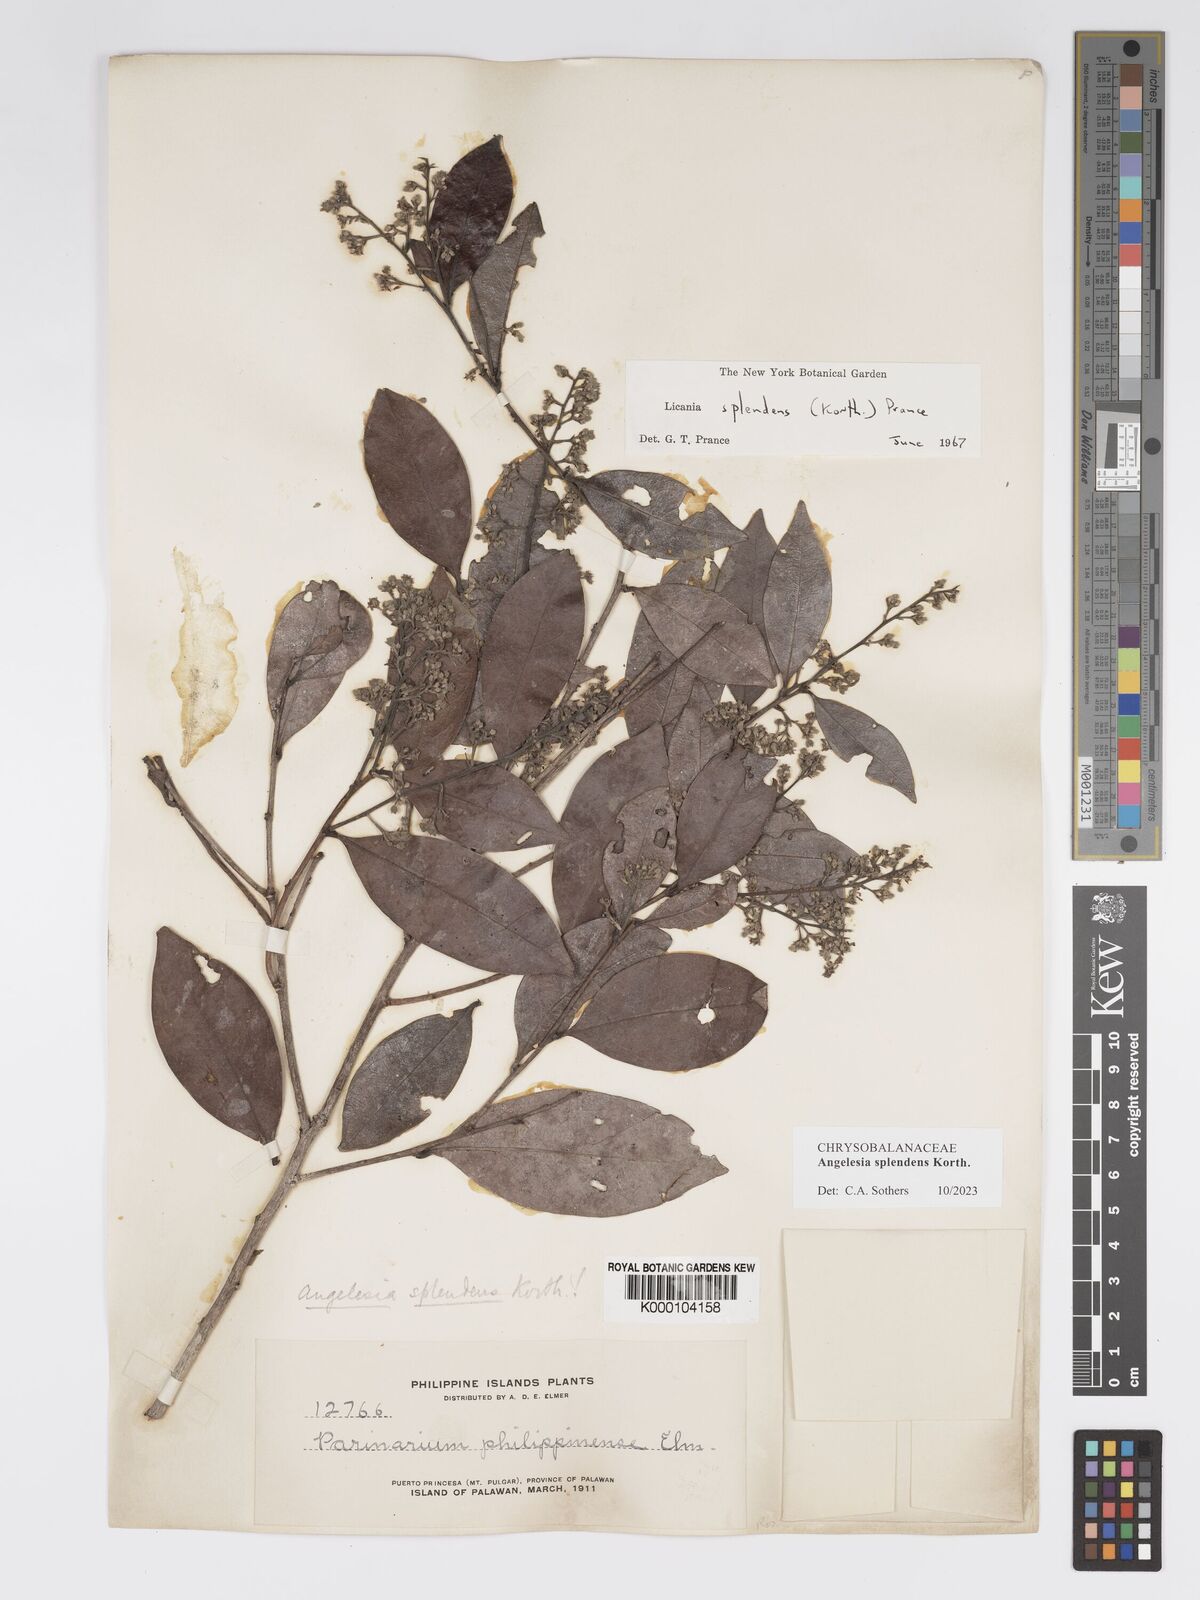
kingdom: Plantae
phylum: Tracheophyta
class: Magnoliopsida
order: Malpighiales
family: Chrysobalanaceae
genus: Angelesia
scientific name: Angelesia splendens
